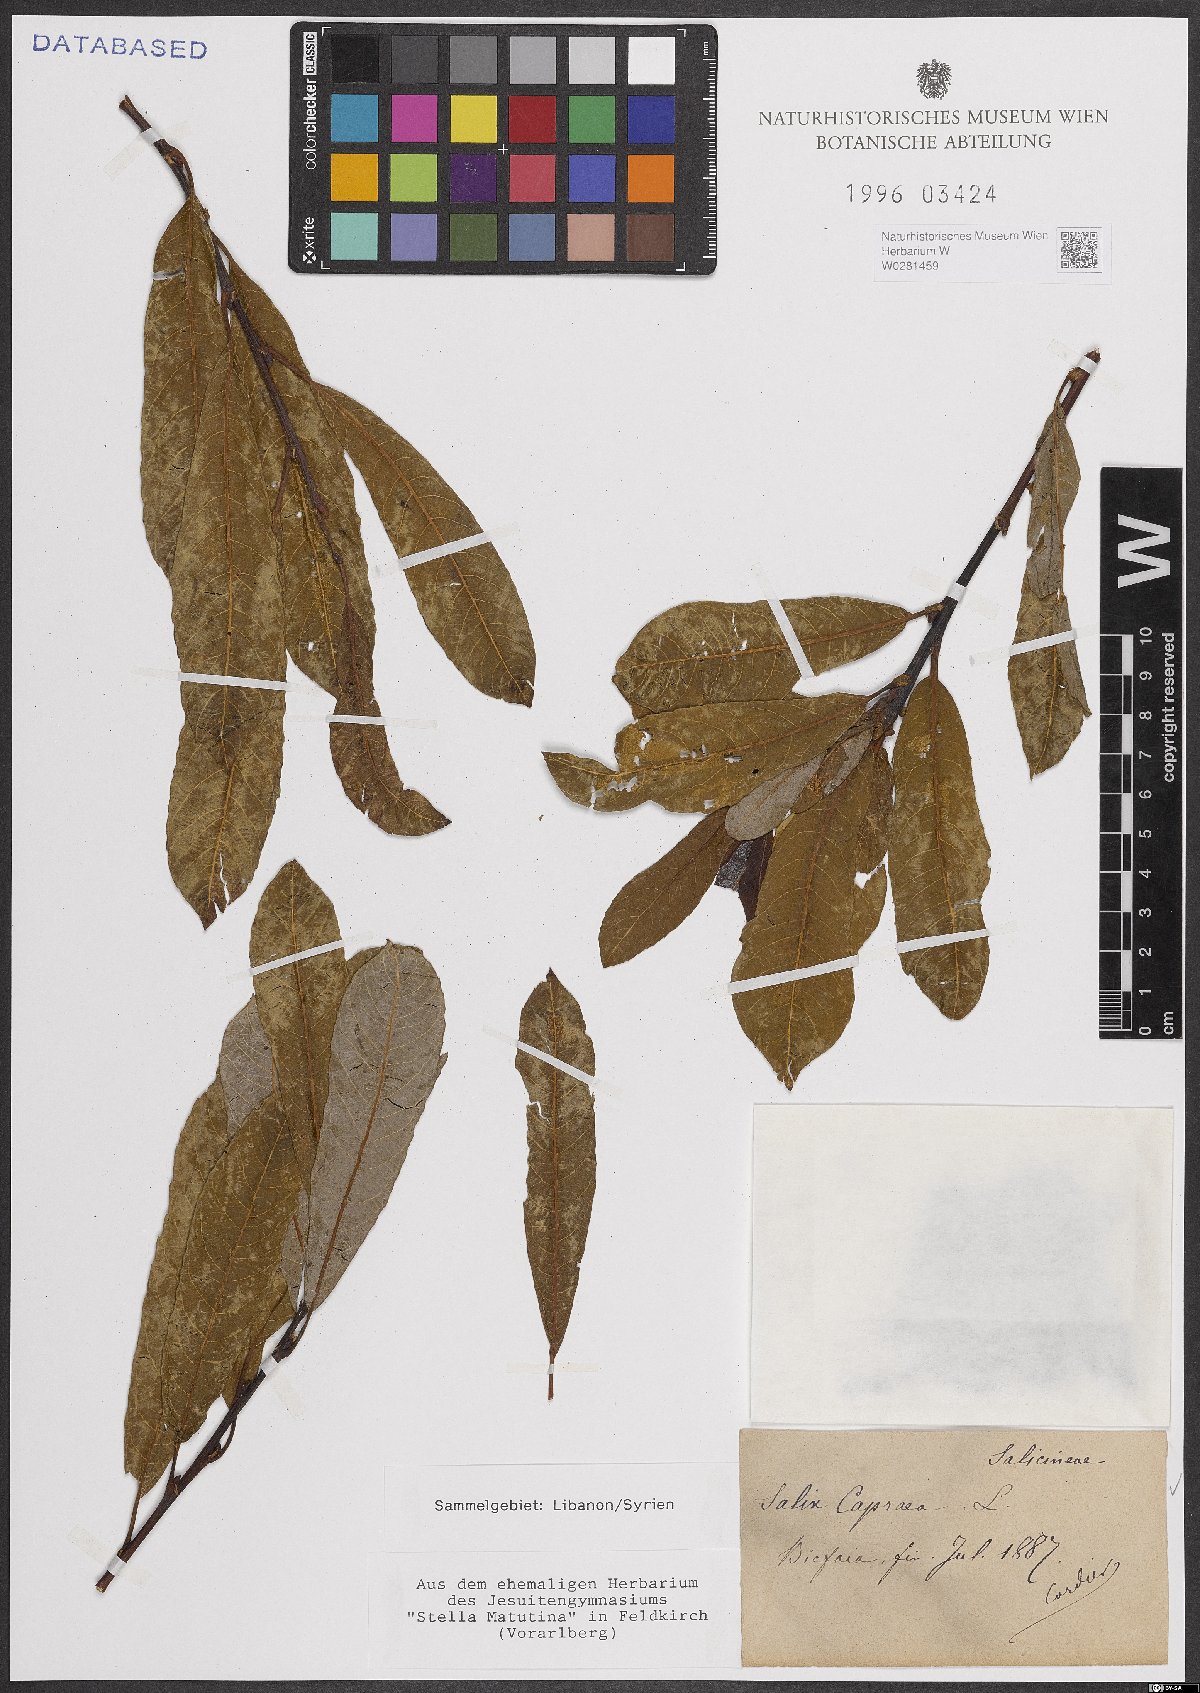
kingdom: Plantae
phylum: Tracheophyta
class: Magnoliopsida
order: Malpighiales
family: Salicaceae
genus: Salix
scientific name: Salix caprea
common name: Goat willow
